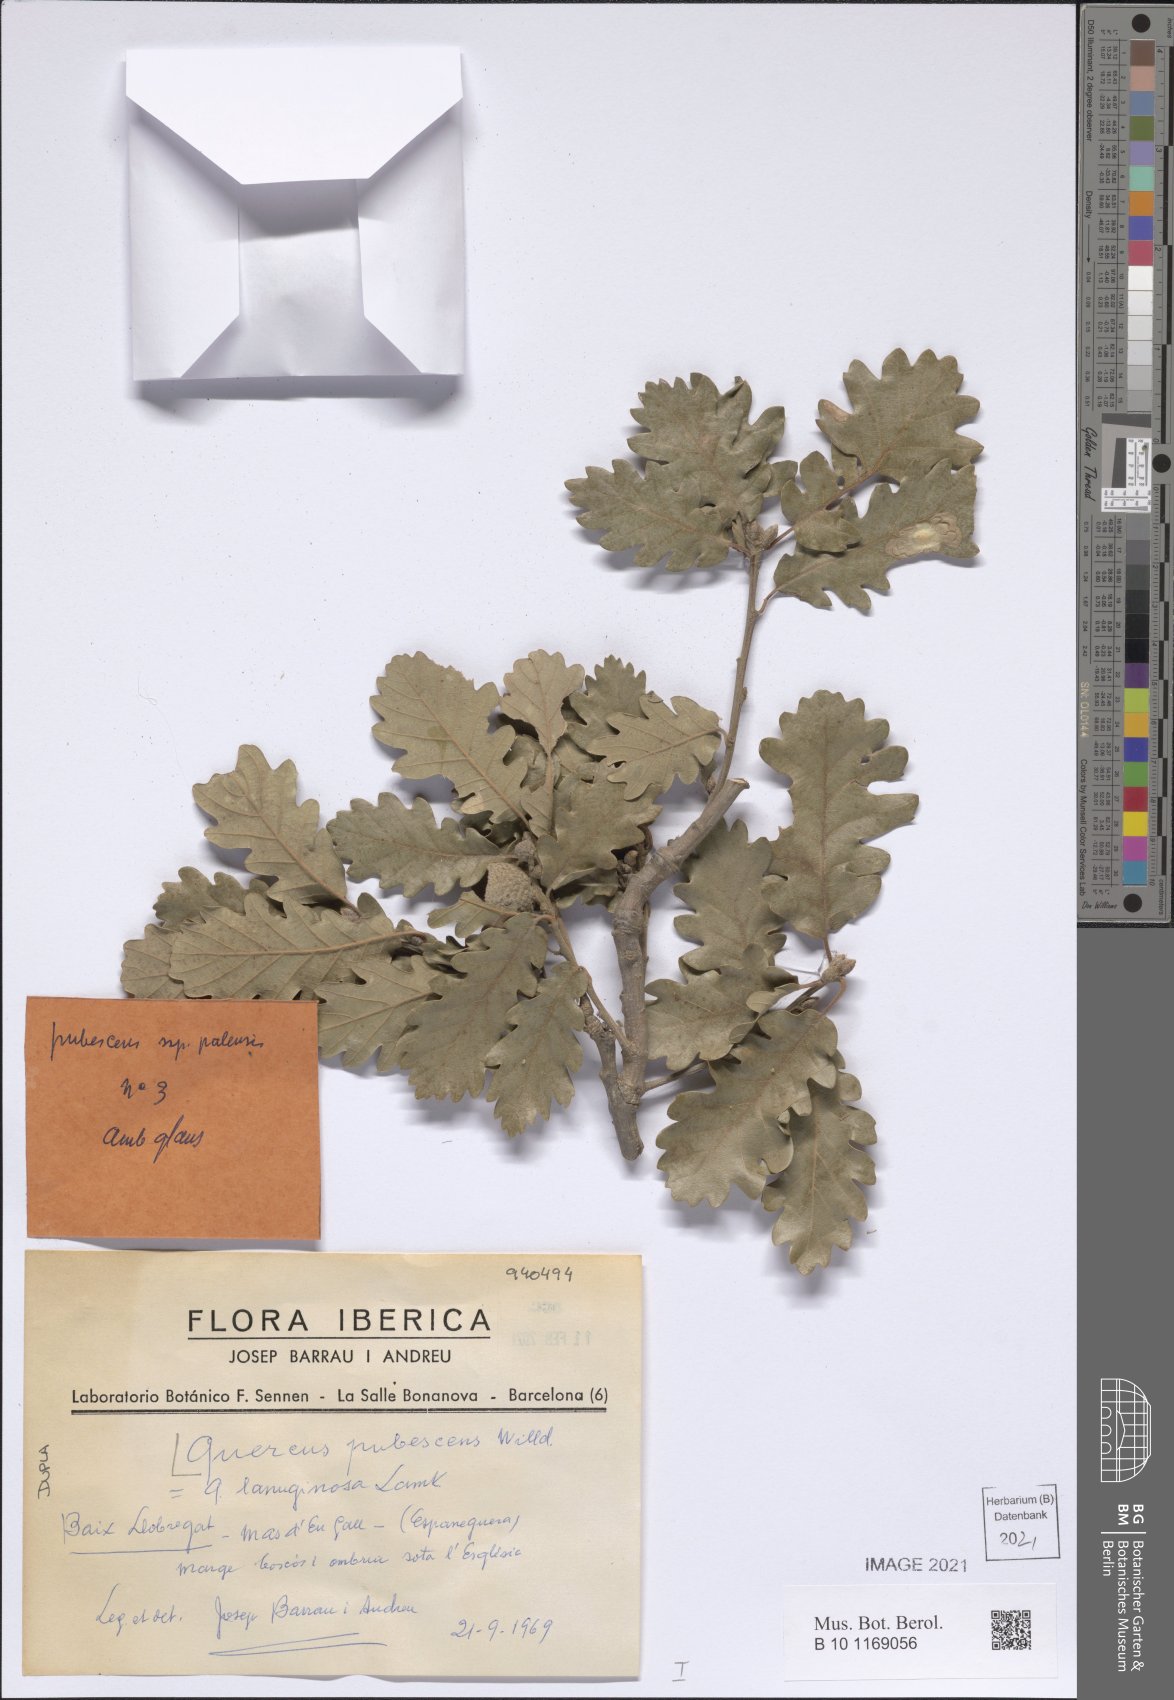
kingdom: Plantae
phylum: Tracheophyta
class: Magnoliopsida
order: Fagales
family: Fagaceae
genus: Quercus
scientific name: Quercus pubescens
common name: Downy oak
